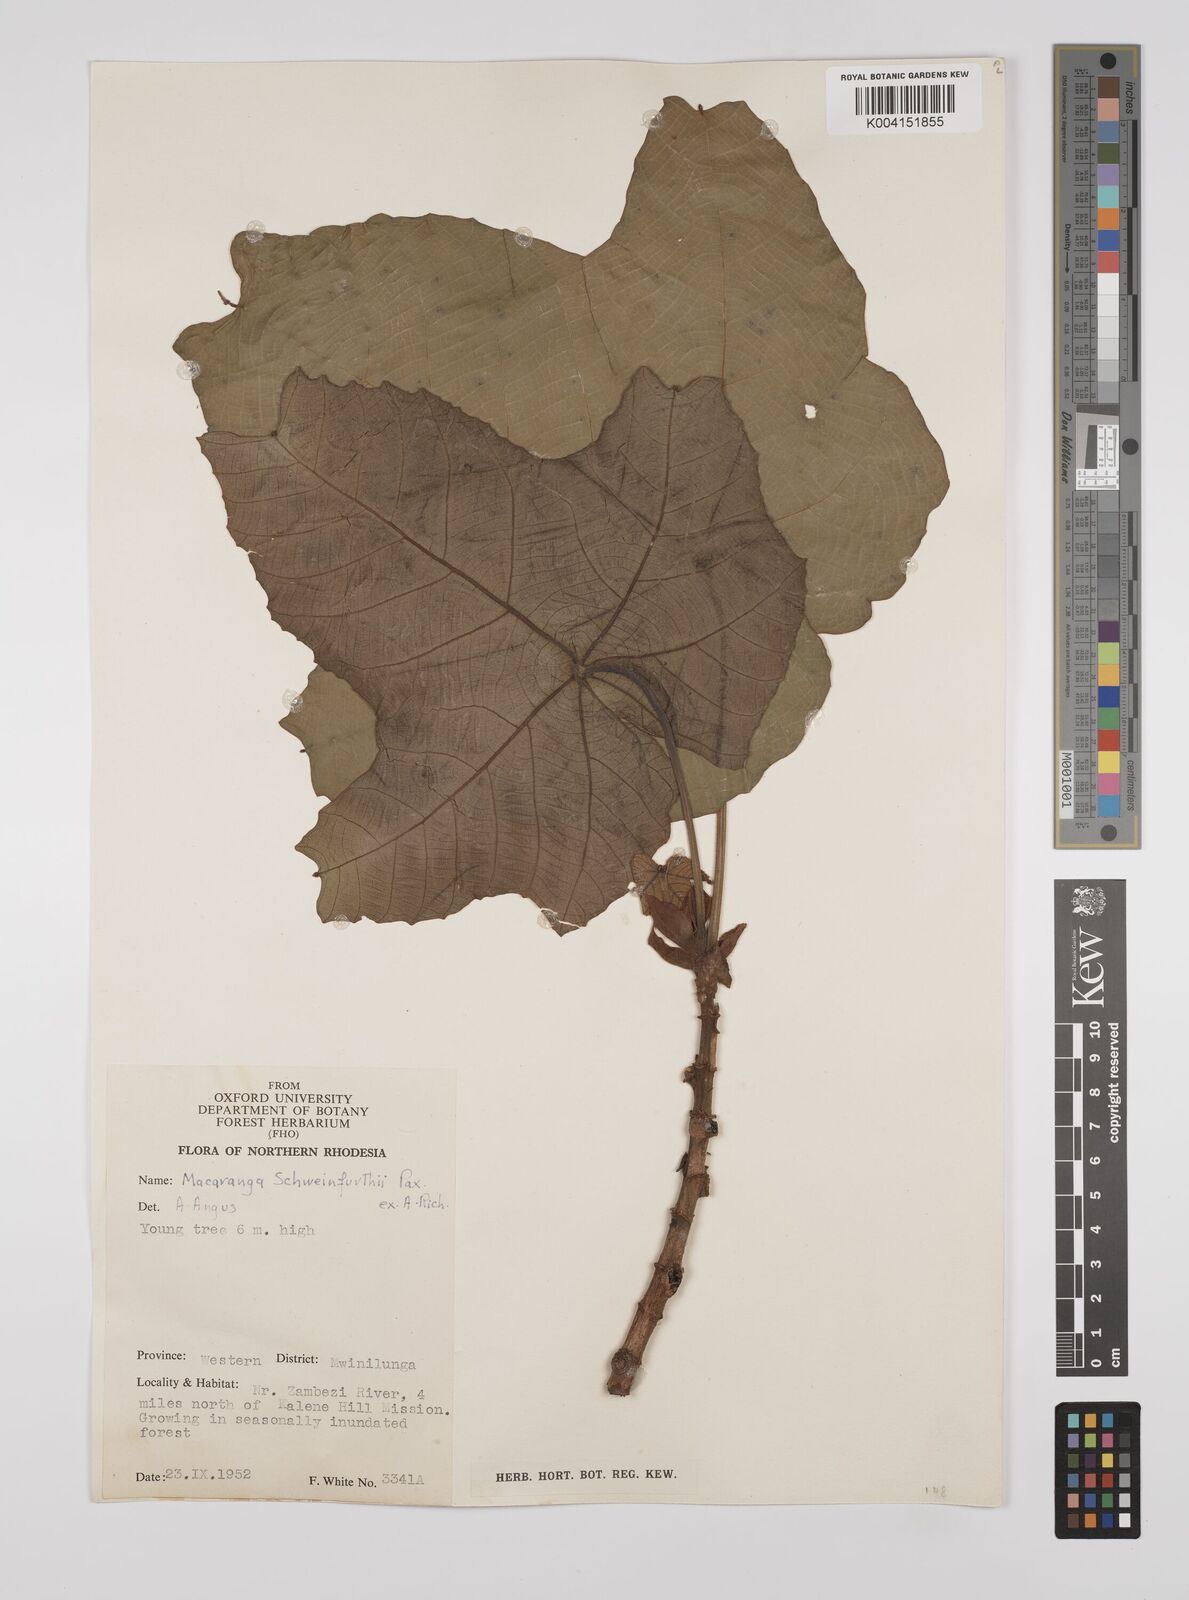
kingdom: Plantae
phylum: Tracheophyta
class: Magnoliopsida
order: Malpighiales
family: Euphorbiaceae
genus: Macaranga
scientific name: Macaranga schweinfurthii
